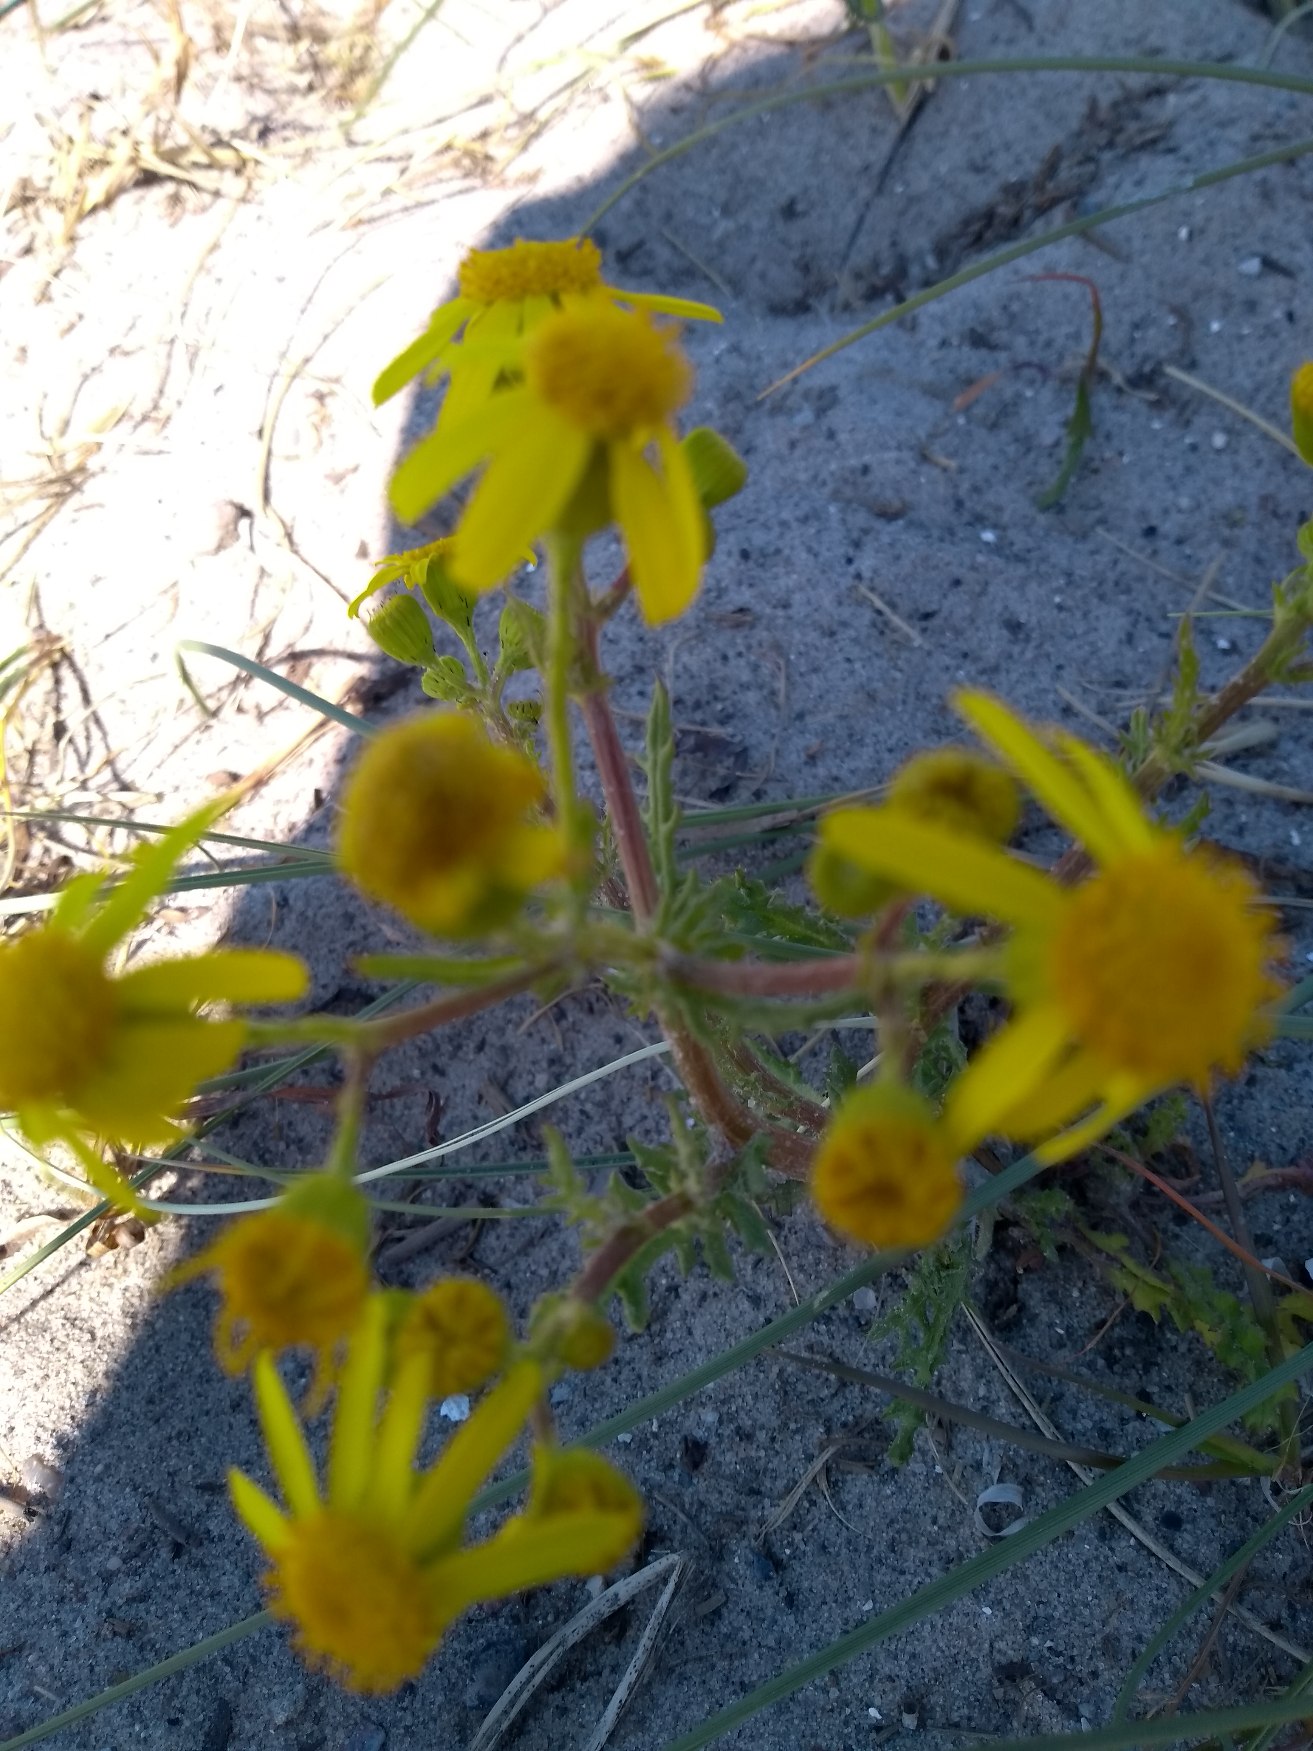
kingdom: Plantae
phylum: Tracheophyta
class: Magnoliopsida
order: Asterales
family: Asteraceae
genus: Senecio
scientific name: Senecio leucanthemifolius
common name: Vår-brandbæger
